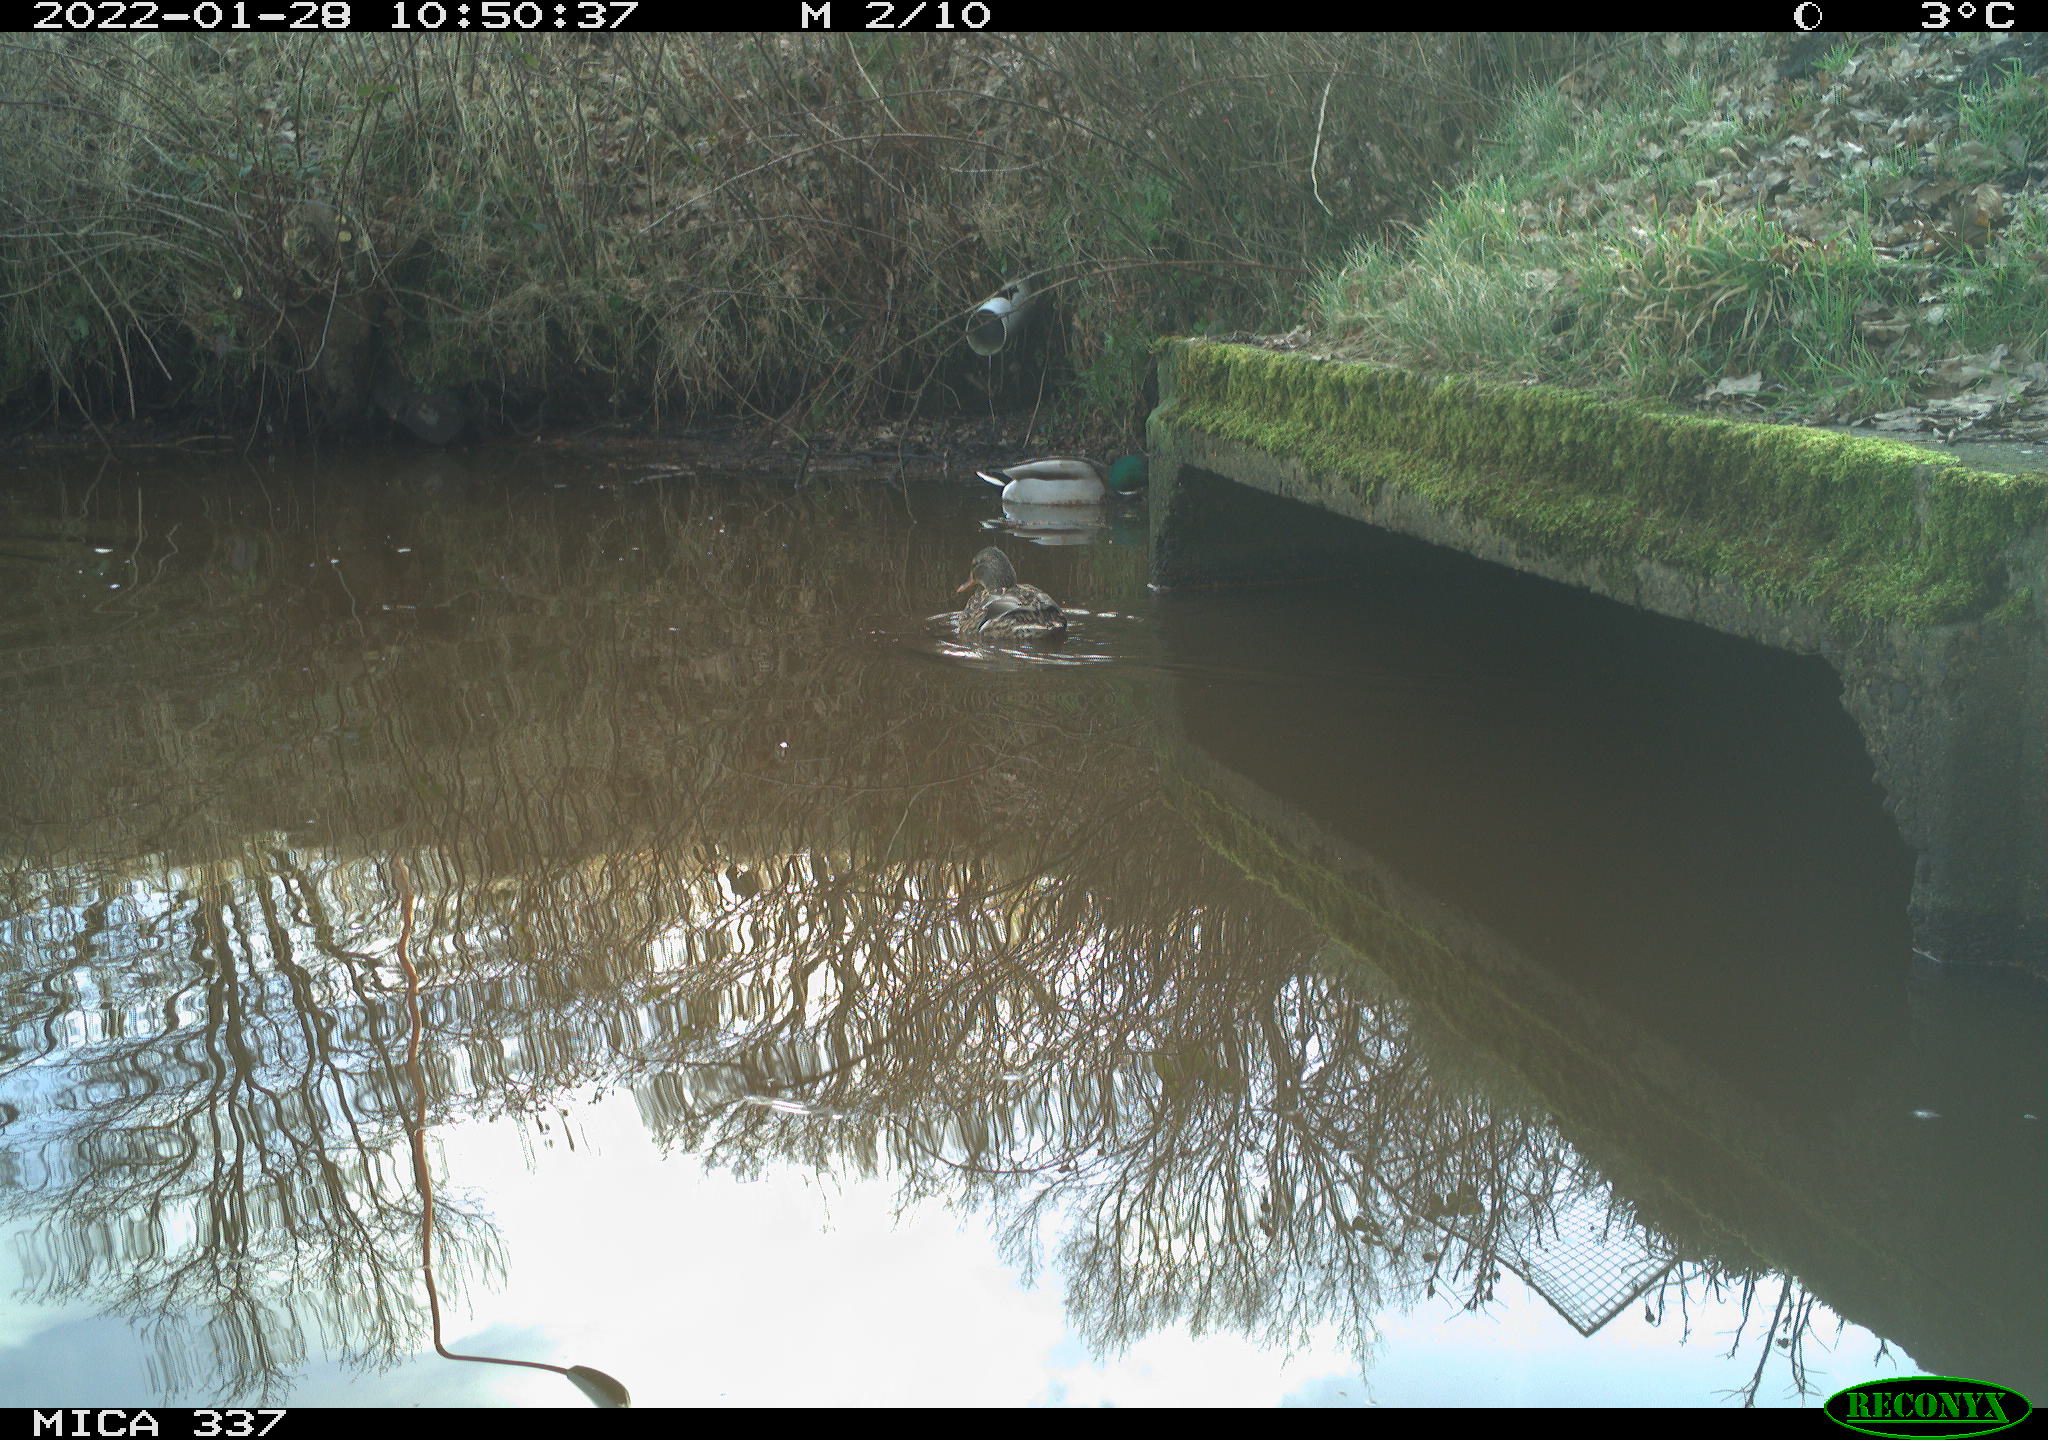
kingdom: Animalia
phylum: Chordata
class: Aves
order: Anseriformes
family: Anatidae
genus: Anas
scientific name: Anas platyrhynchos
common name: Mallard
